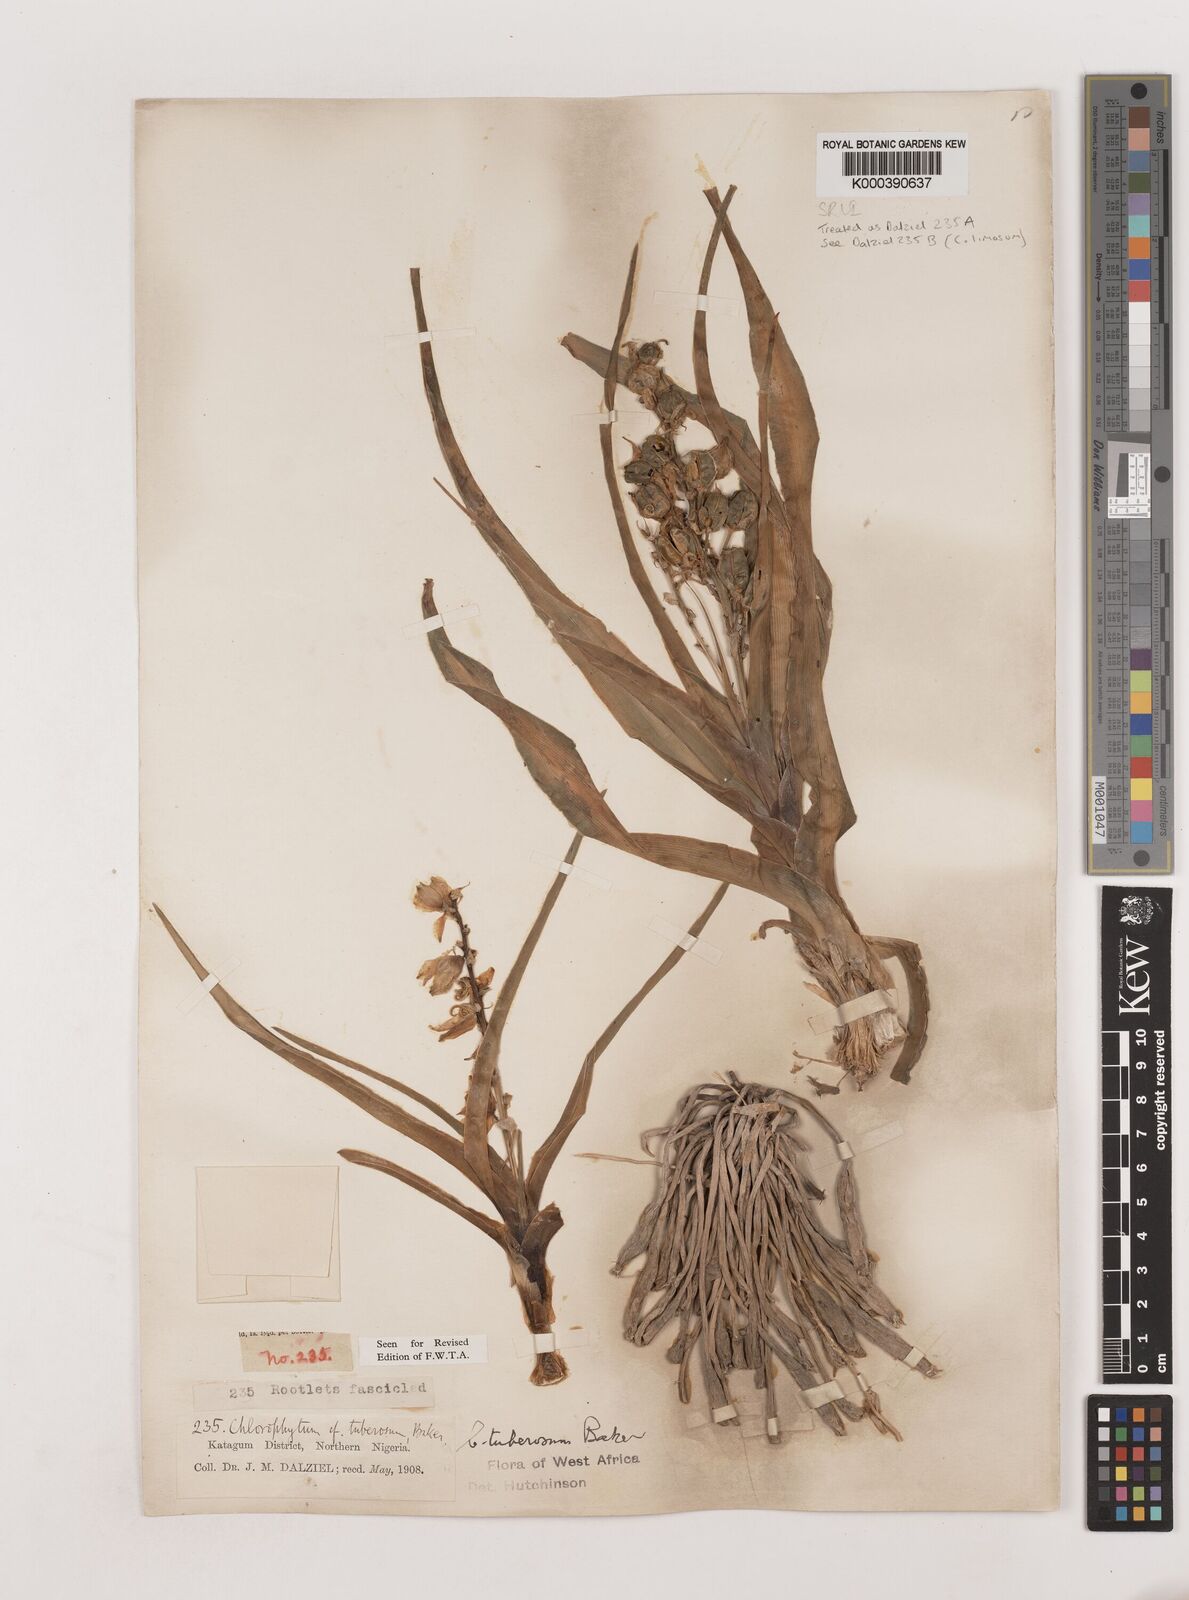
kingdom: Plantae
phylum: Tracheophyta
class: Liliopsida
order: Asparagales
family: Asparagaceae
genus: Chlorophytum
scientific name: Chlorophytum tuberosum
